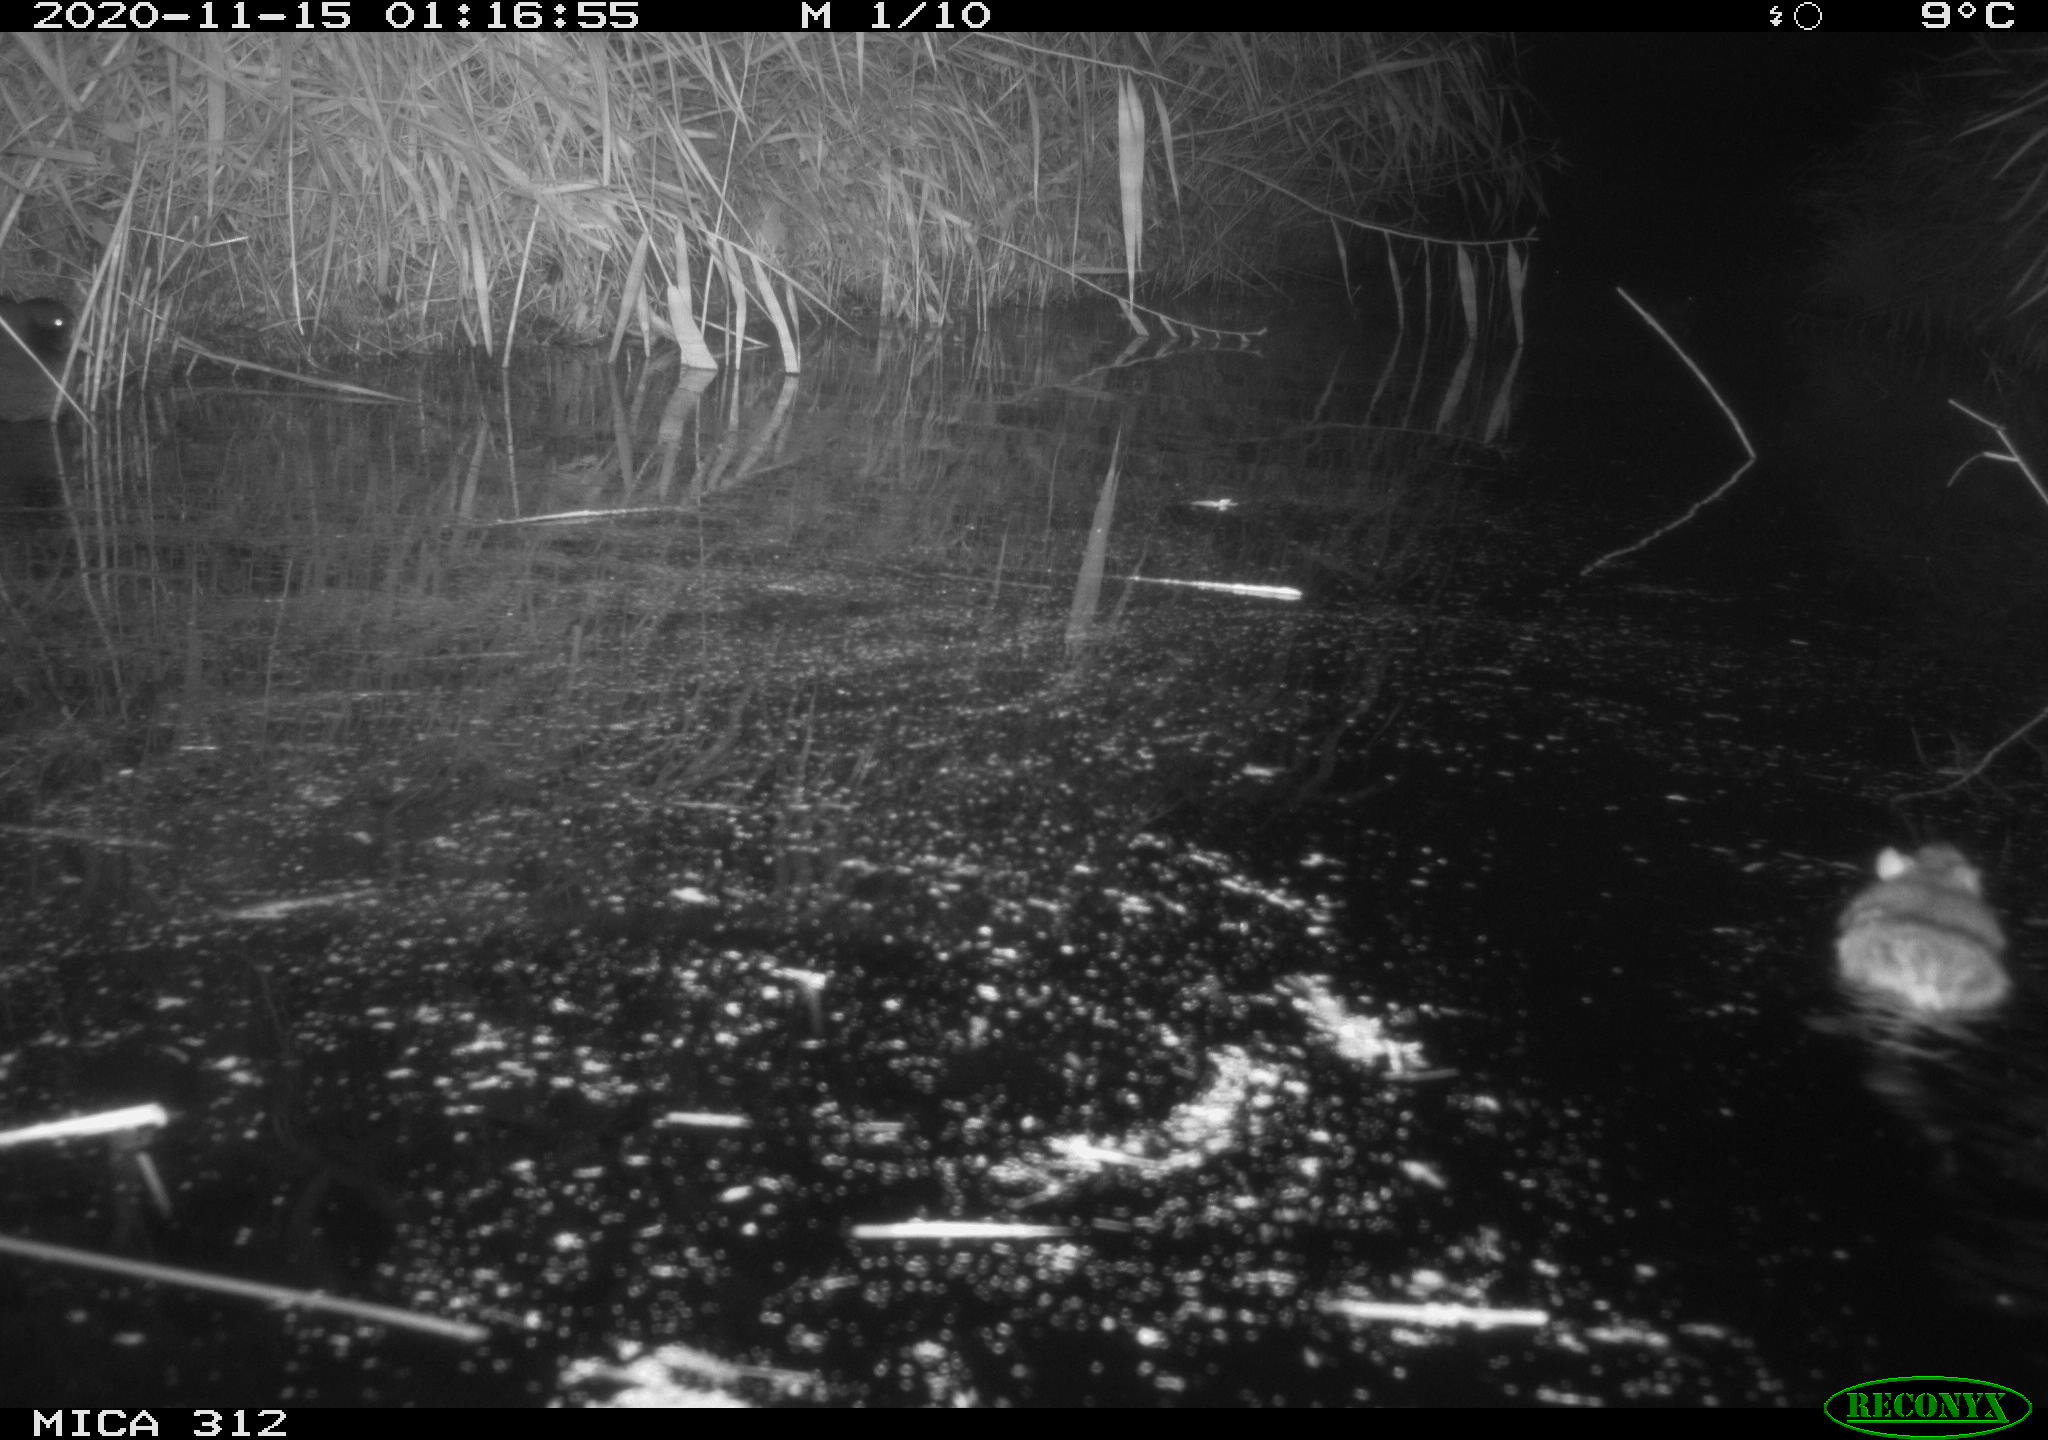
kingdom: Animalia
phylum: Chordata
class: Mammalia
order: Rodentia
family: Muridae
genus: Rattus
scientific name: Rattus norvegicus
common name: Brown rat
